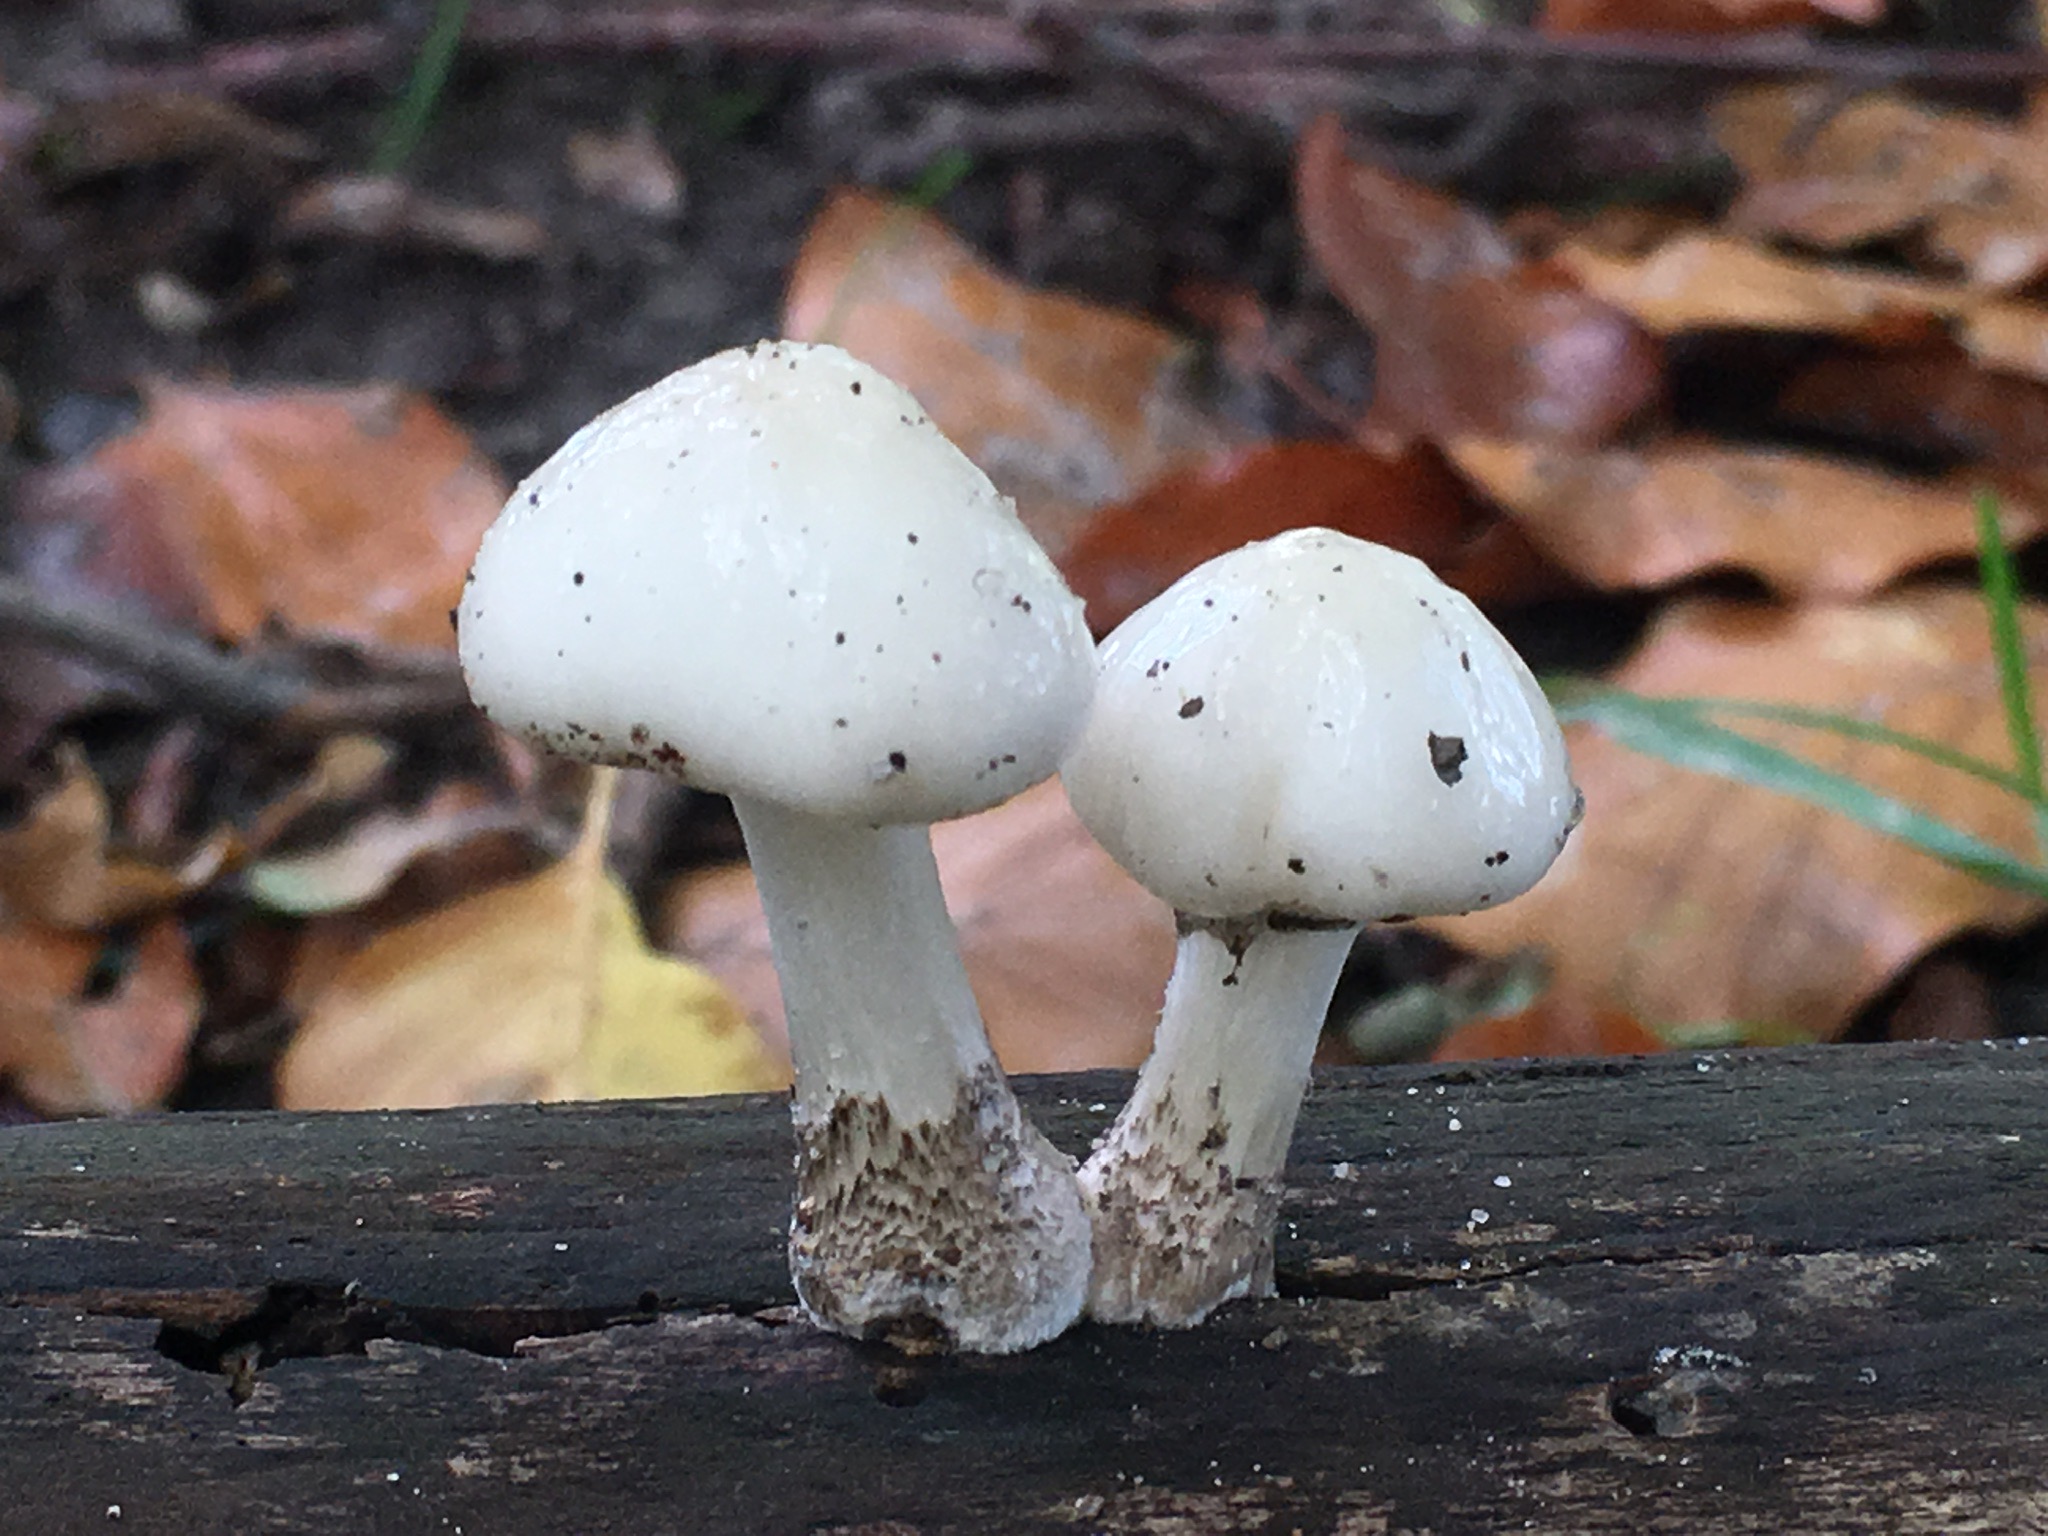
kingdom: Fungi
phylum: Basidiomycota
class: Agaricomycetes
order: Agaricales
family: Physalacriaceae
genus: Mucidula
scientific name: Mucidula mucida
